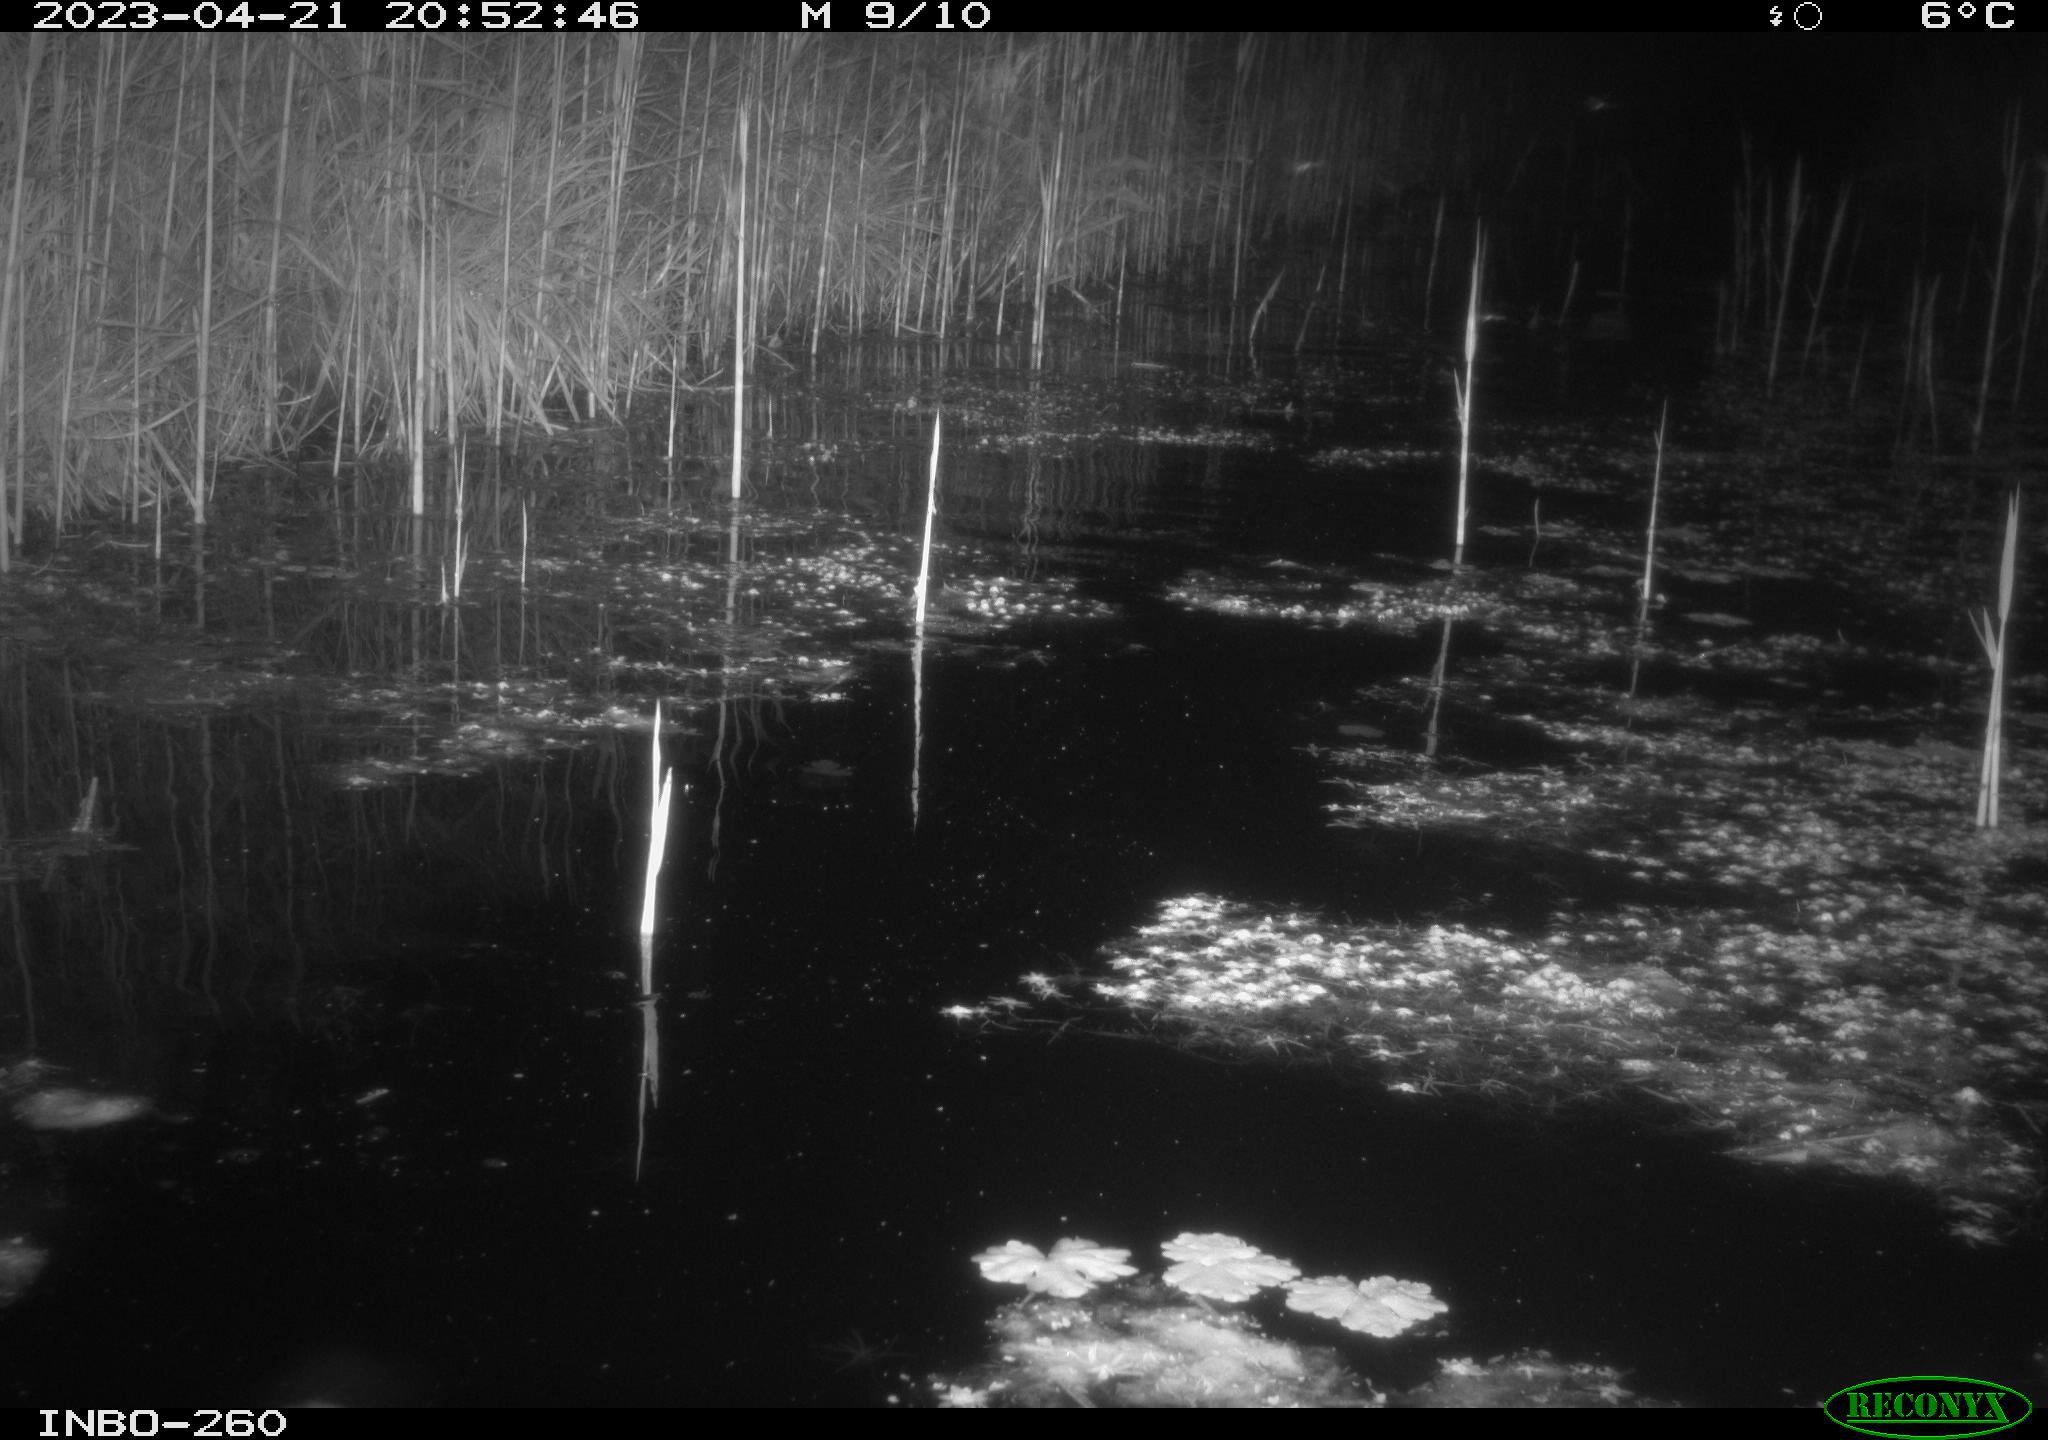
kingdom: Animalia
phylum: Chordata
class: Mammalia
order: Rodentia
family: Cricetidae
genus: Ondatra
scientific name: Ondatra zibethicus
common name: Muskrat
